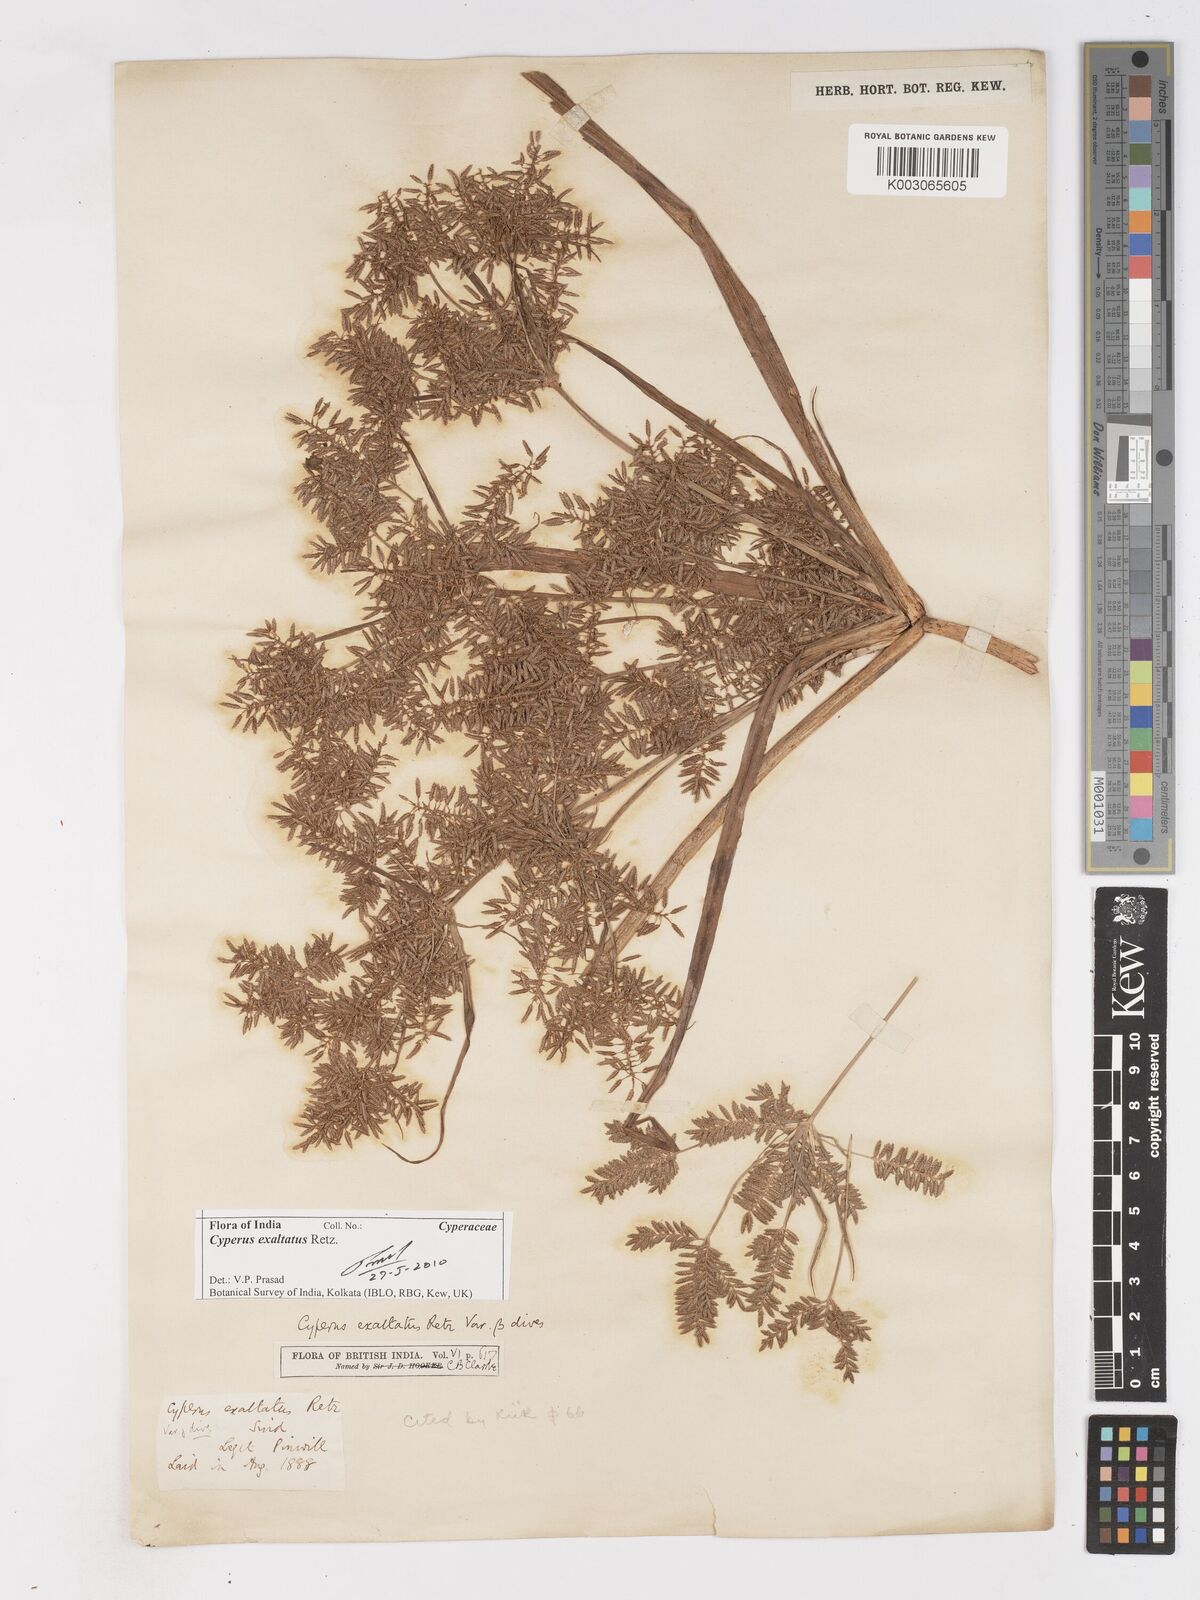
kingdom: Plantae
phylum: Tracheophyta
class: Liliopsida
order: Poales
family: Cyperaceae
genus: Cyperus
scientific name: Cyperus exaltatus
